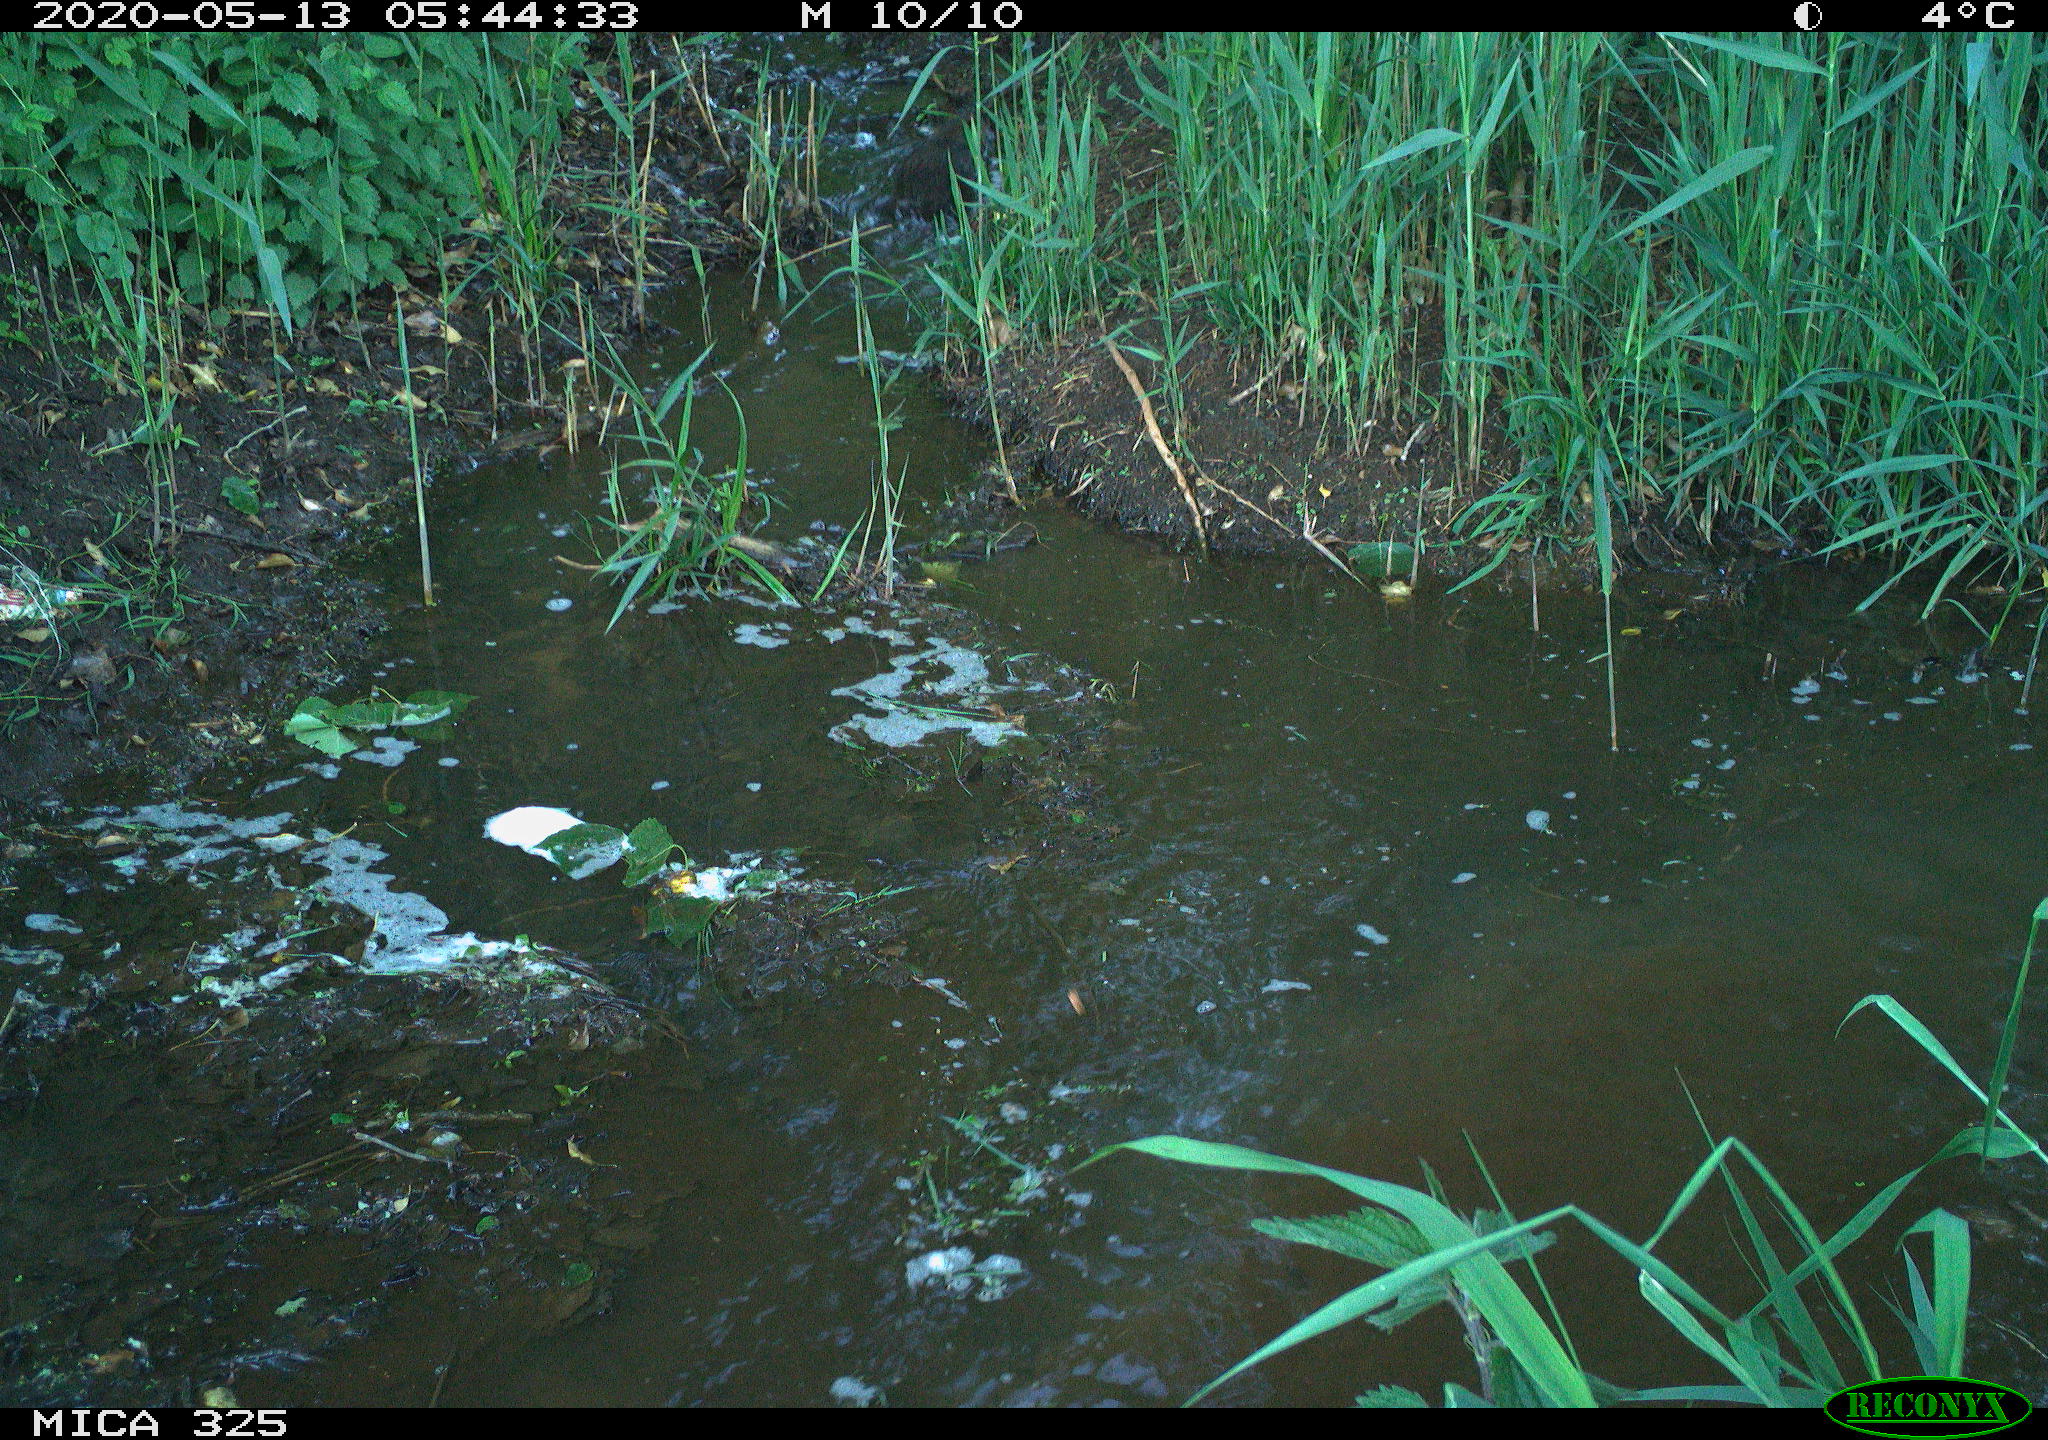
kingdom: Animalia
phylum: Chordata
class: Mammalia
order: Rodentia
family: Myocastoridae
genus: Myocastor
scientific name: Myocastor coypus
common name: Coypu
